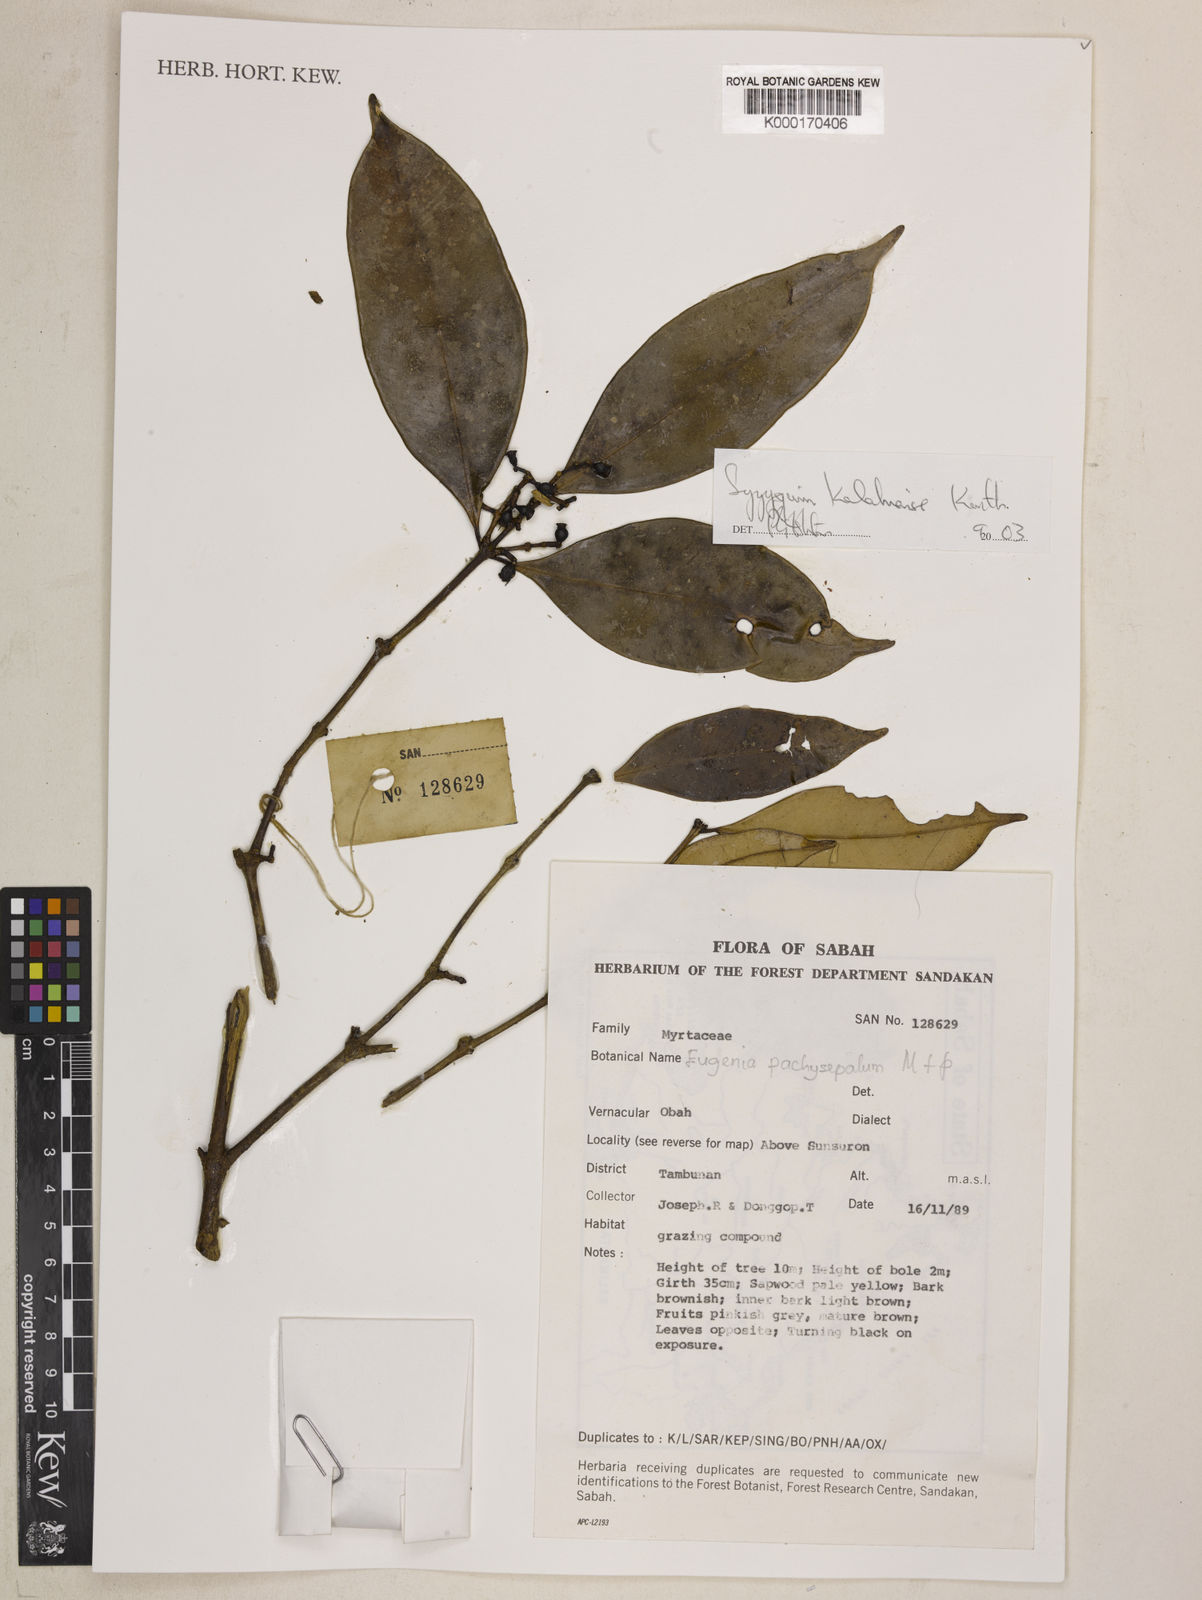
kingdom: Plantae
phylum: Tracheophyta
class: Magnoliopsida
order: Myrtales
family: Myrtaceae
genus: Syzygium
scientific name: Syzygium kalahiense
